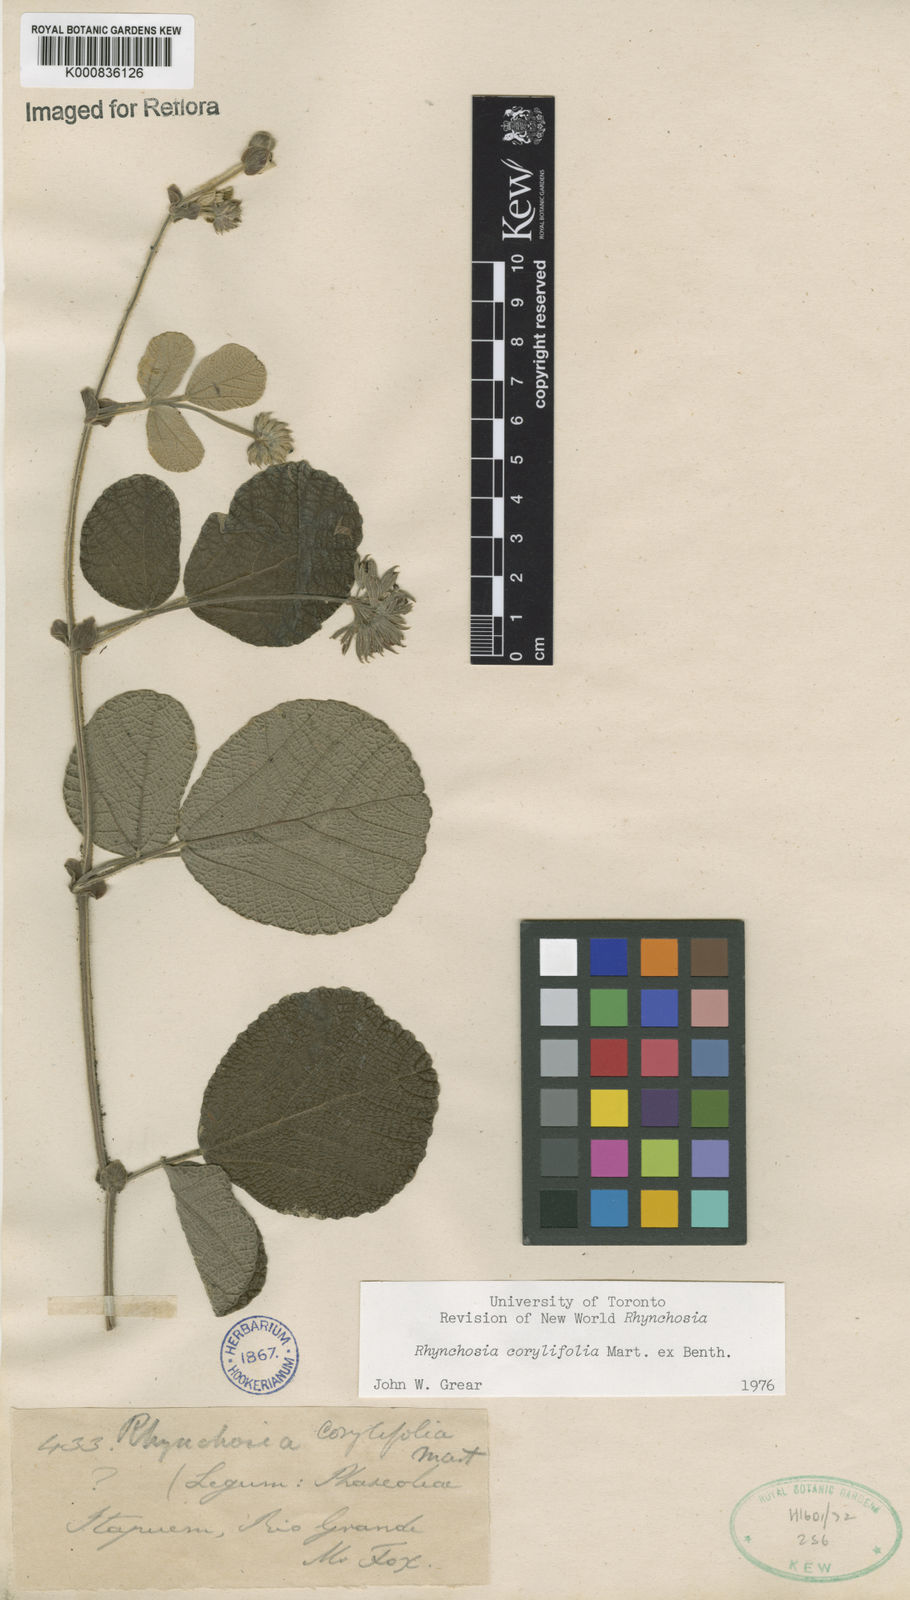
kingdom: Plantae
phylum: Tracheophyta
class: Magnoliopsida
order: Fabales
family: Fabaceae
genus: Rhynchosia
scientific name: Rhynchosia corylifolia
